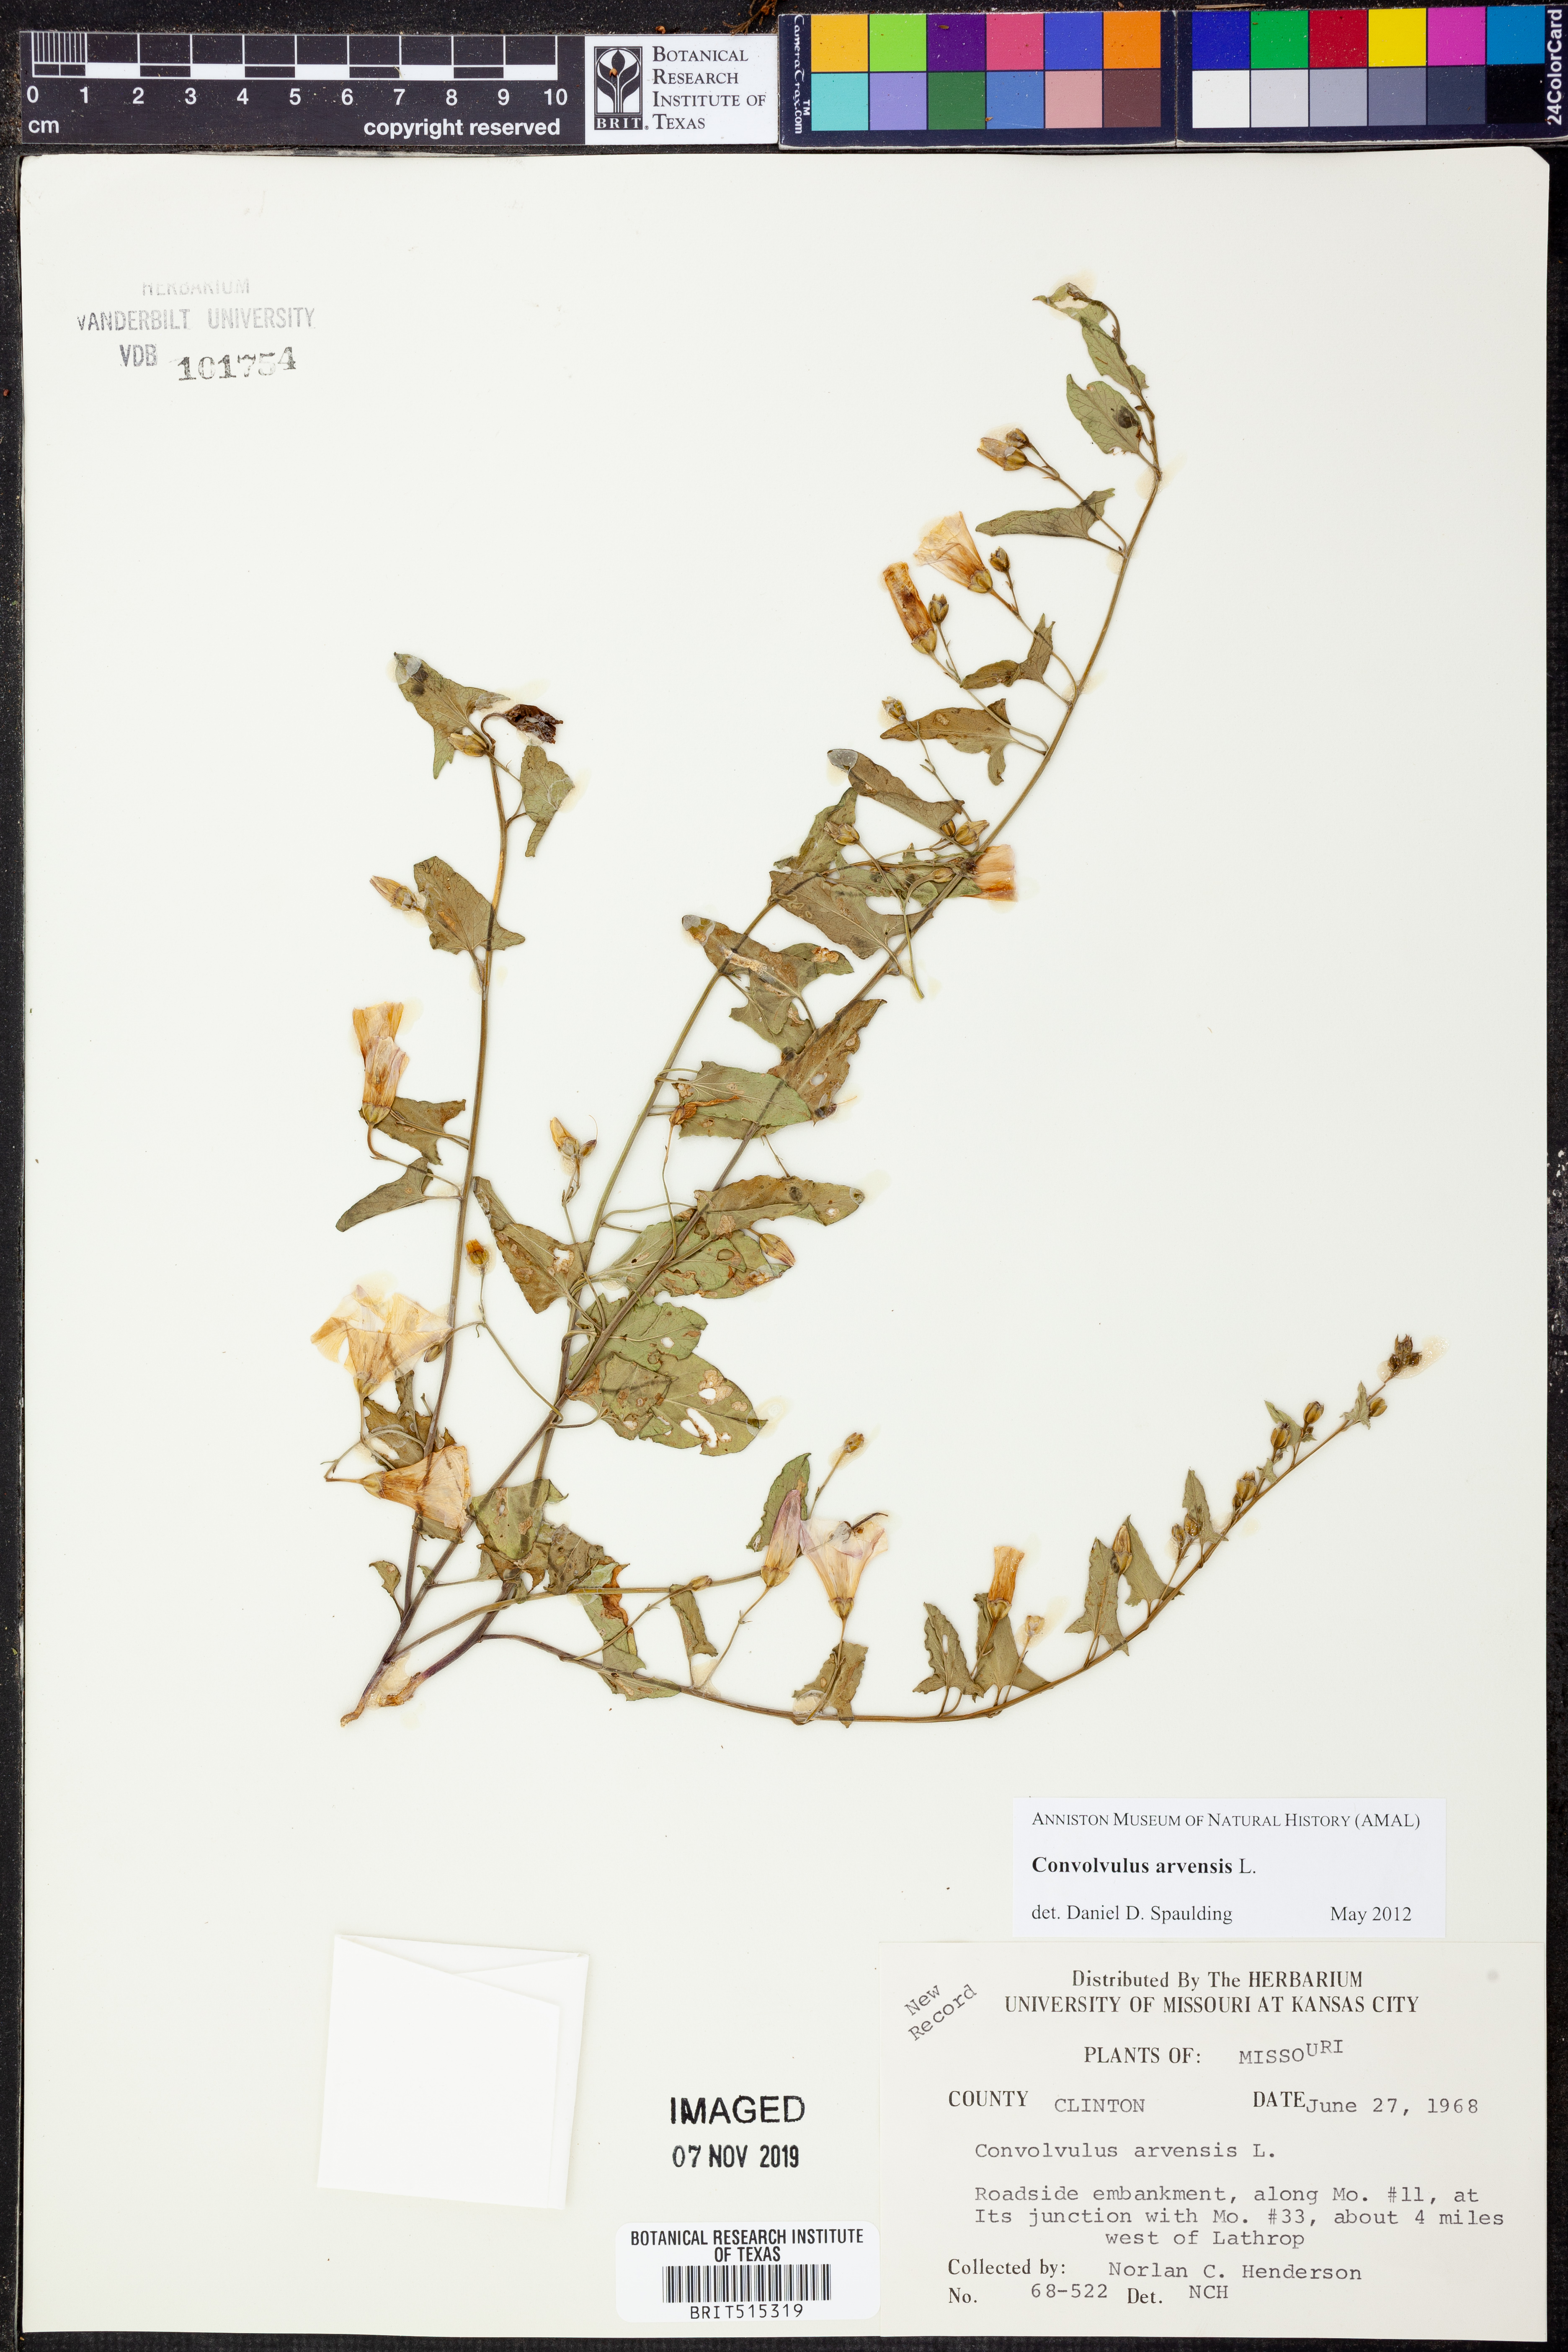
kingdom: Plantae
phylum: Tracheophyta
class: Magnoliopsida
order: Solanales
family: Convolvulaceae
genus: Convolvulus
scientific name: Convolvulus arvensis
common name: Field bindweed
